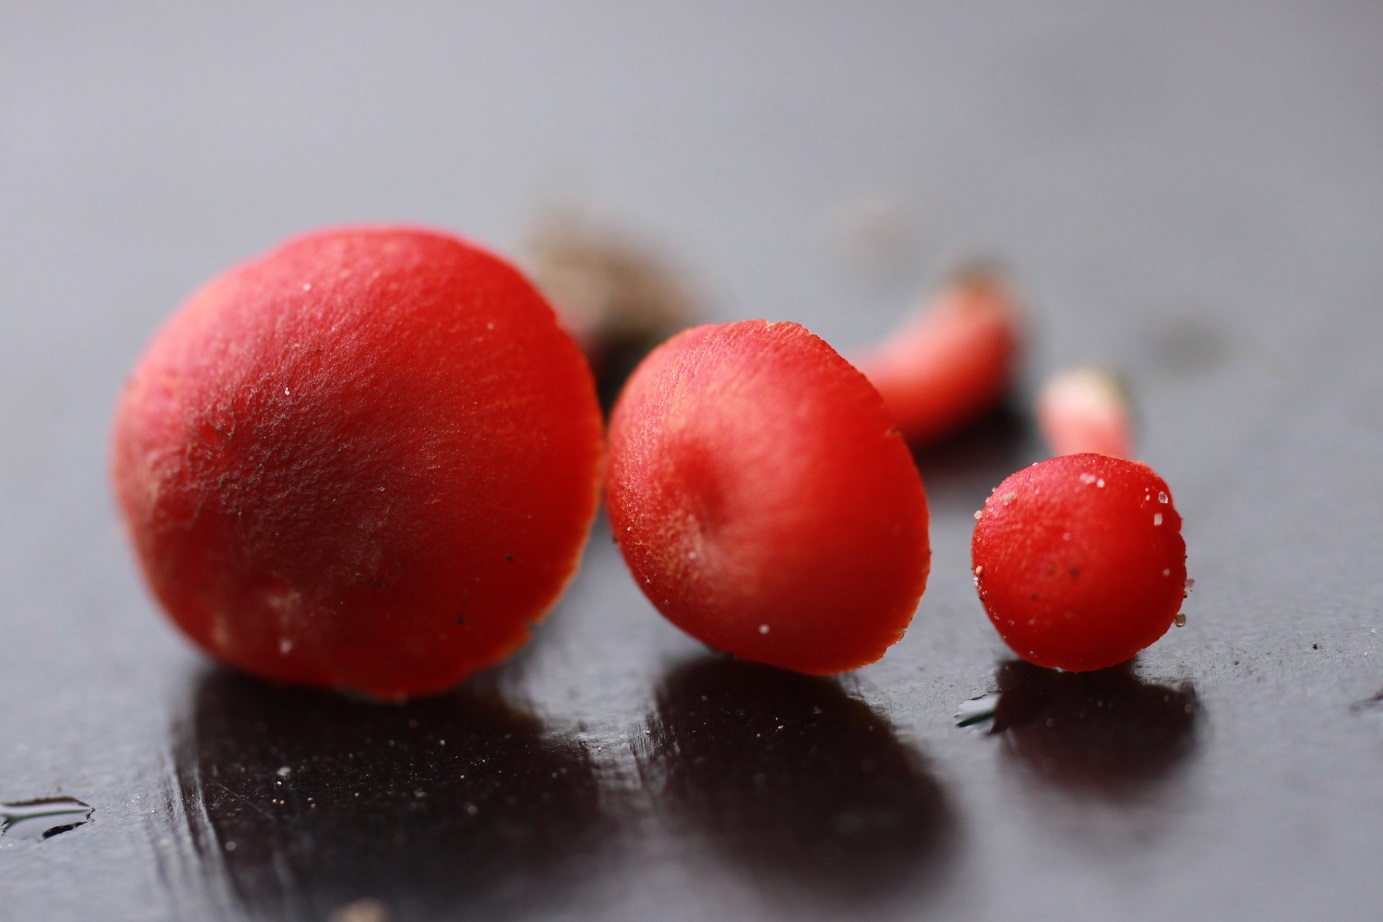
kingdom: Fungi
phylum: Basidiomycota
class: Agaricomycetes
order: Agaricales
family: Hygrophoraceae
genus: Hygrocybe
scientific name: Hygrocybe phaeococcinea
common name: sortdugget vokshat
